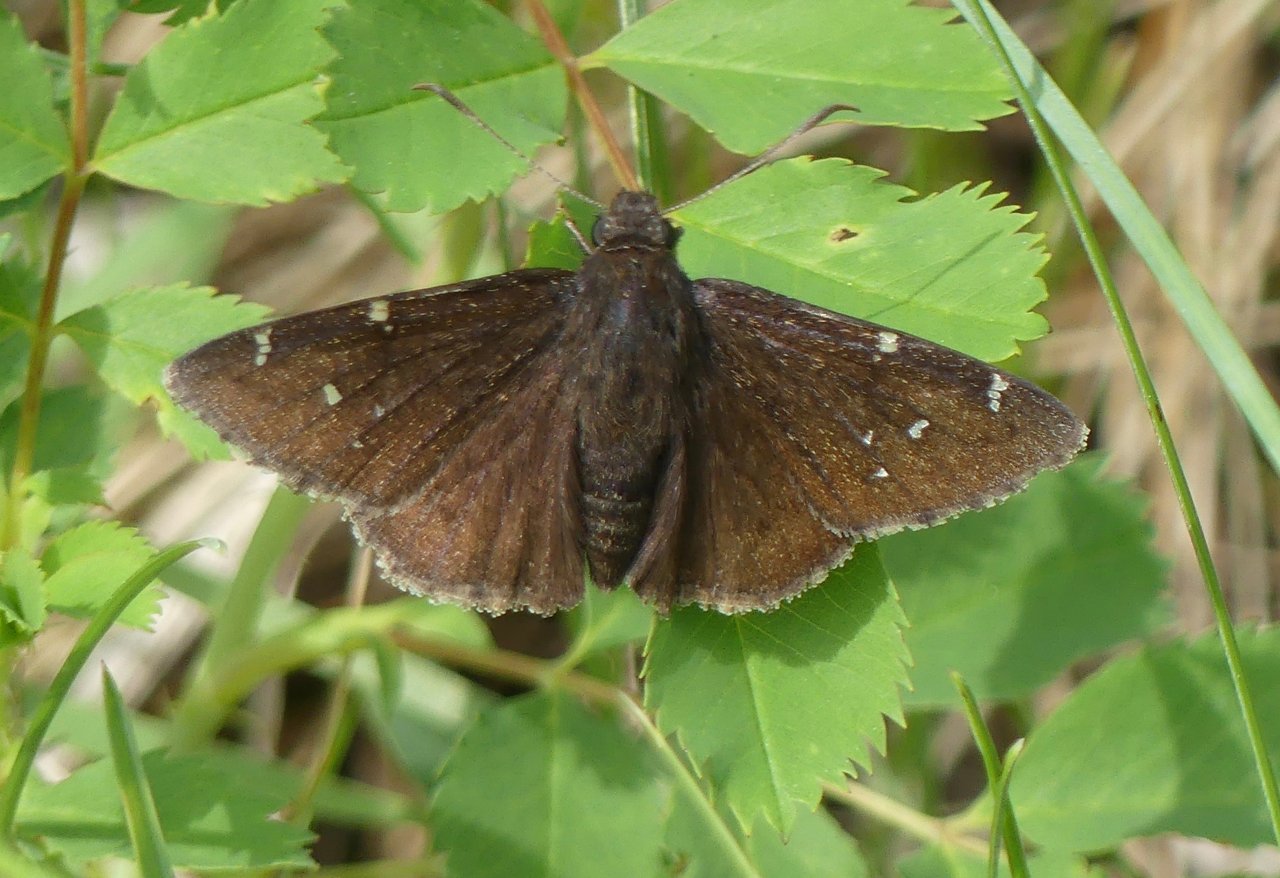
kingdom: Animalia
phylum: Arthropoda
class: Insecta
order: Lepidoptera
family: Hesperiidae
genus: Autochton
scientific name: Autochton
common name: Northern Cloudywing
